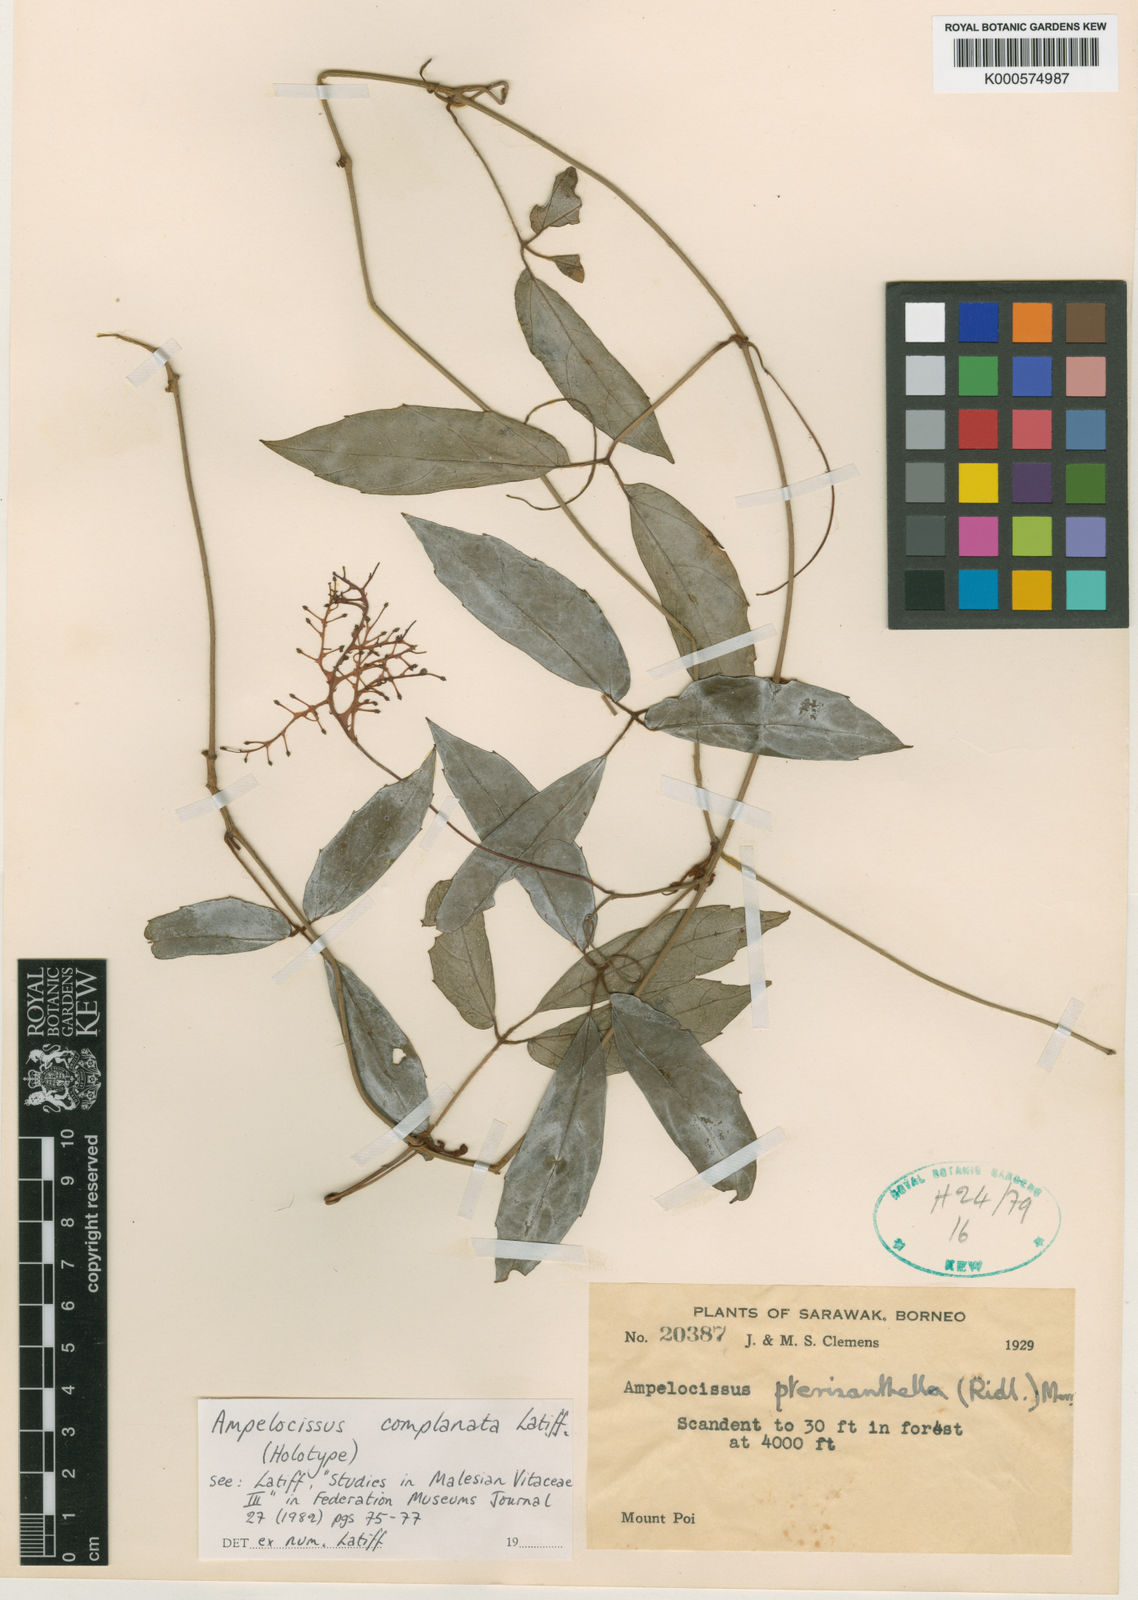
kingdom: Plantae
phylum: Tracheophyta
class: Magnoliopsida
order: Vitales
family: Vitaceae
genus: Ampelocissus
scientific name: Ampelocissus complanata
